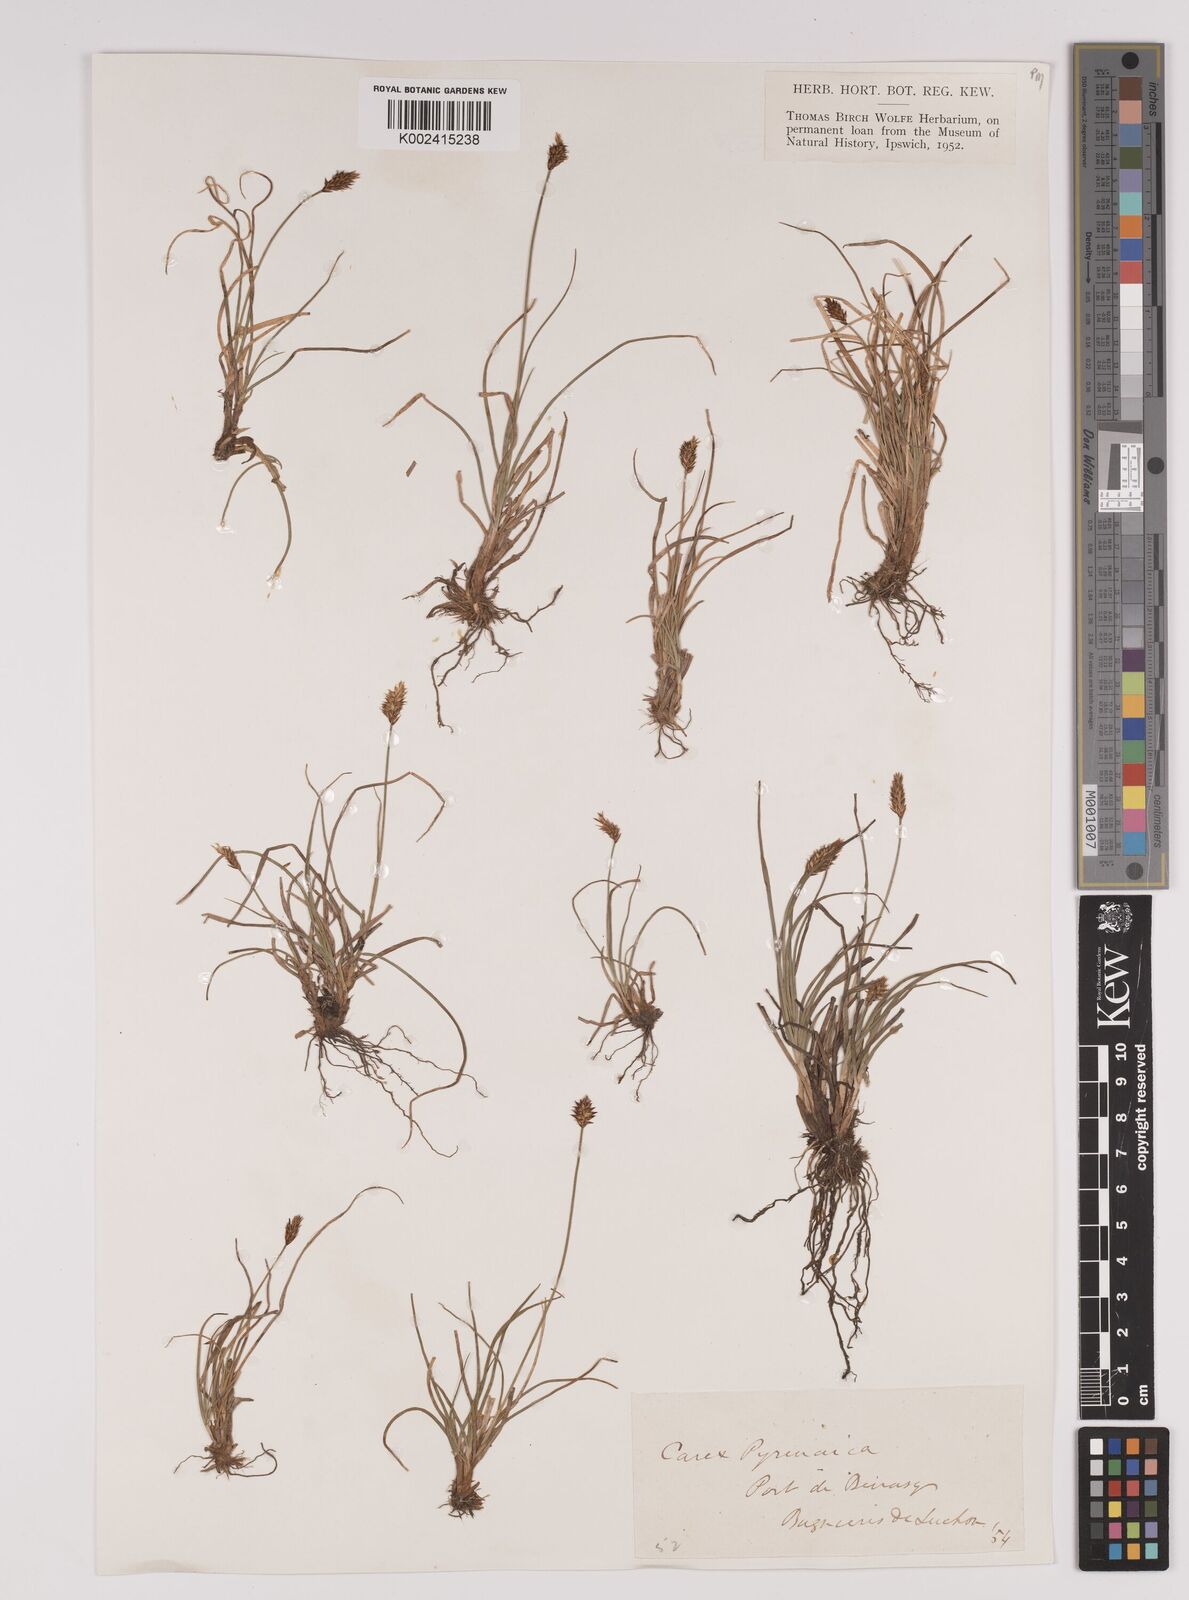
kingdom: Plantae
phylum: Tracheophyta
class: Liliopsida
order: Poales
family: Cyperaceae
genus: Carex
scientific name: Carex pyrenaica
